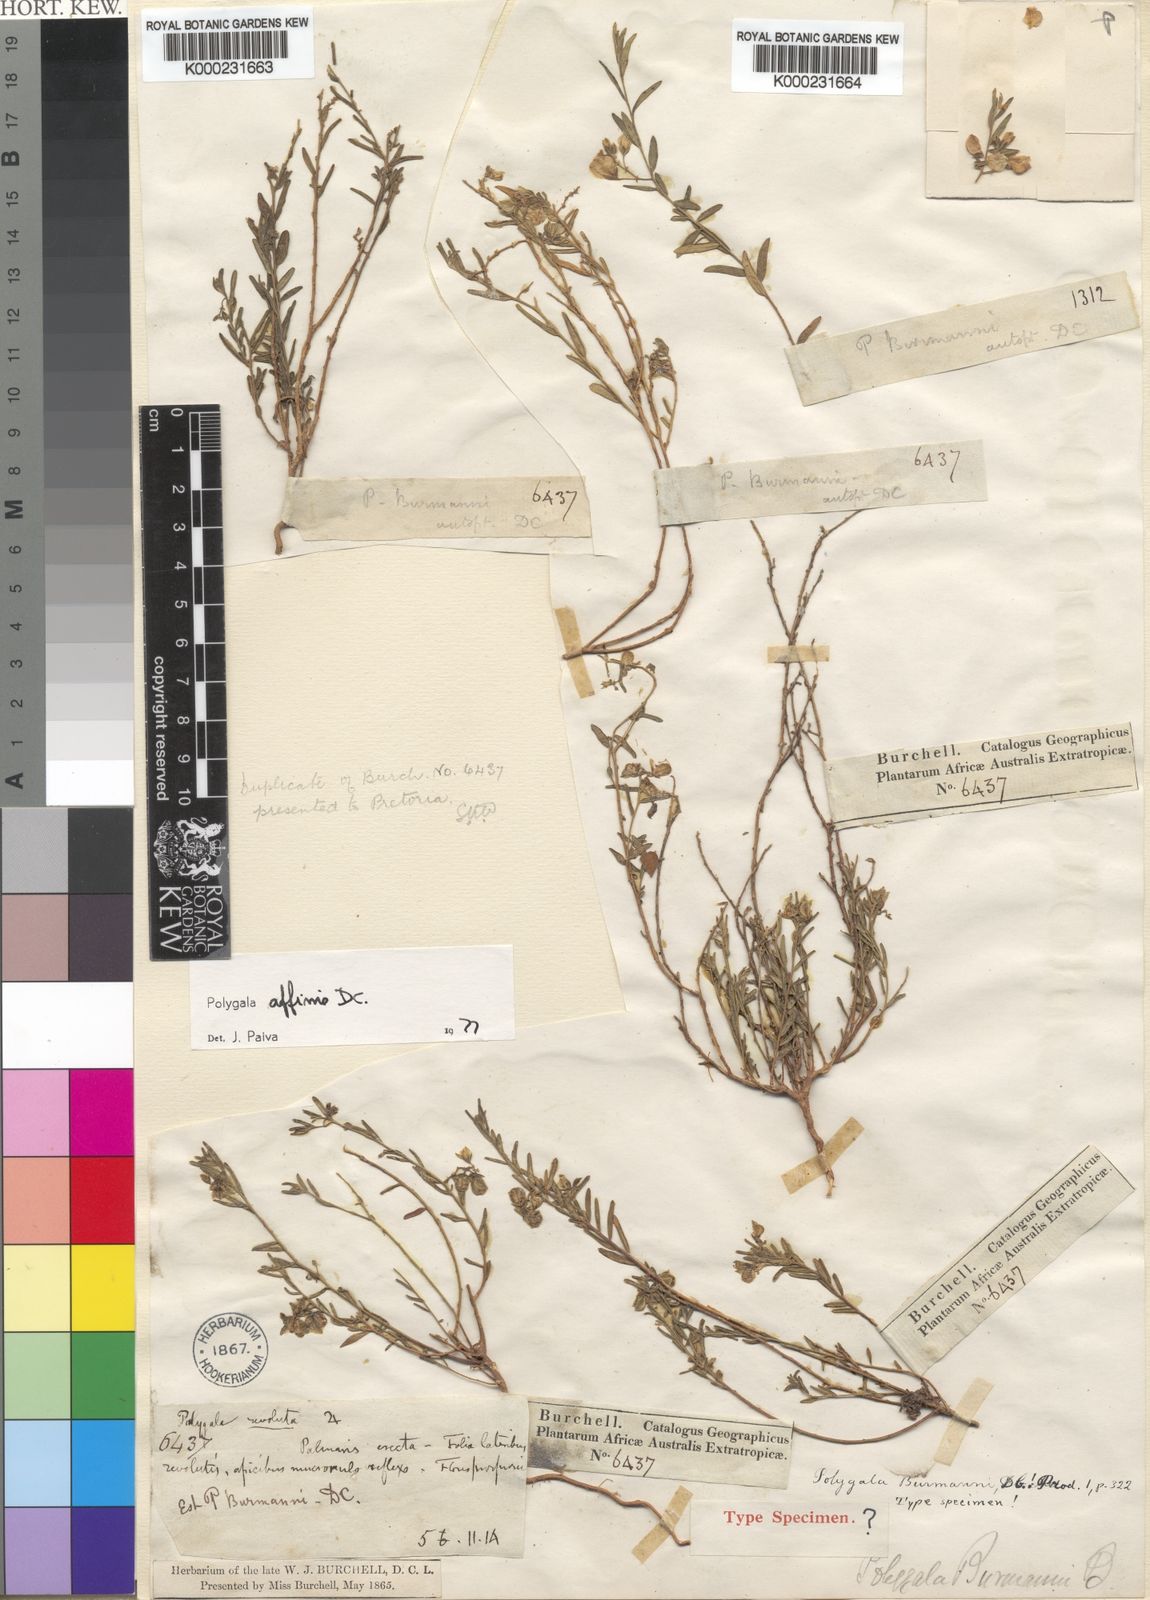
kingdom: Plantae
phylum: Tracheophyta
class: Magnoliopsida
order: Fabales
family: Polygalaceae
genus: Polygala
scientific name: Polygala scabra
